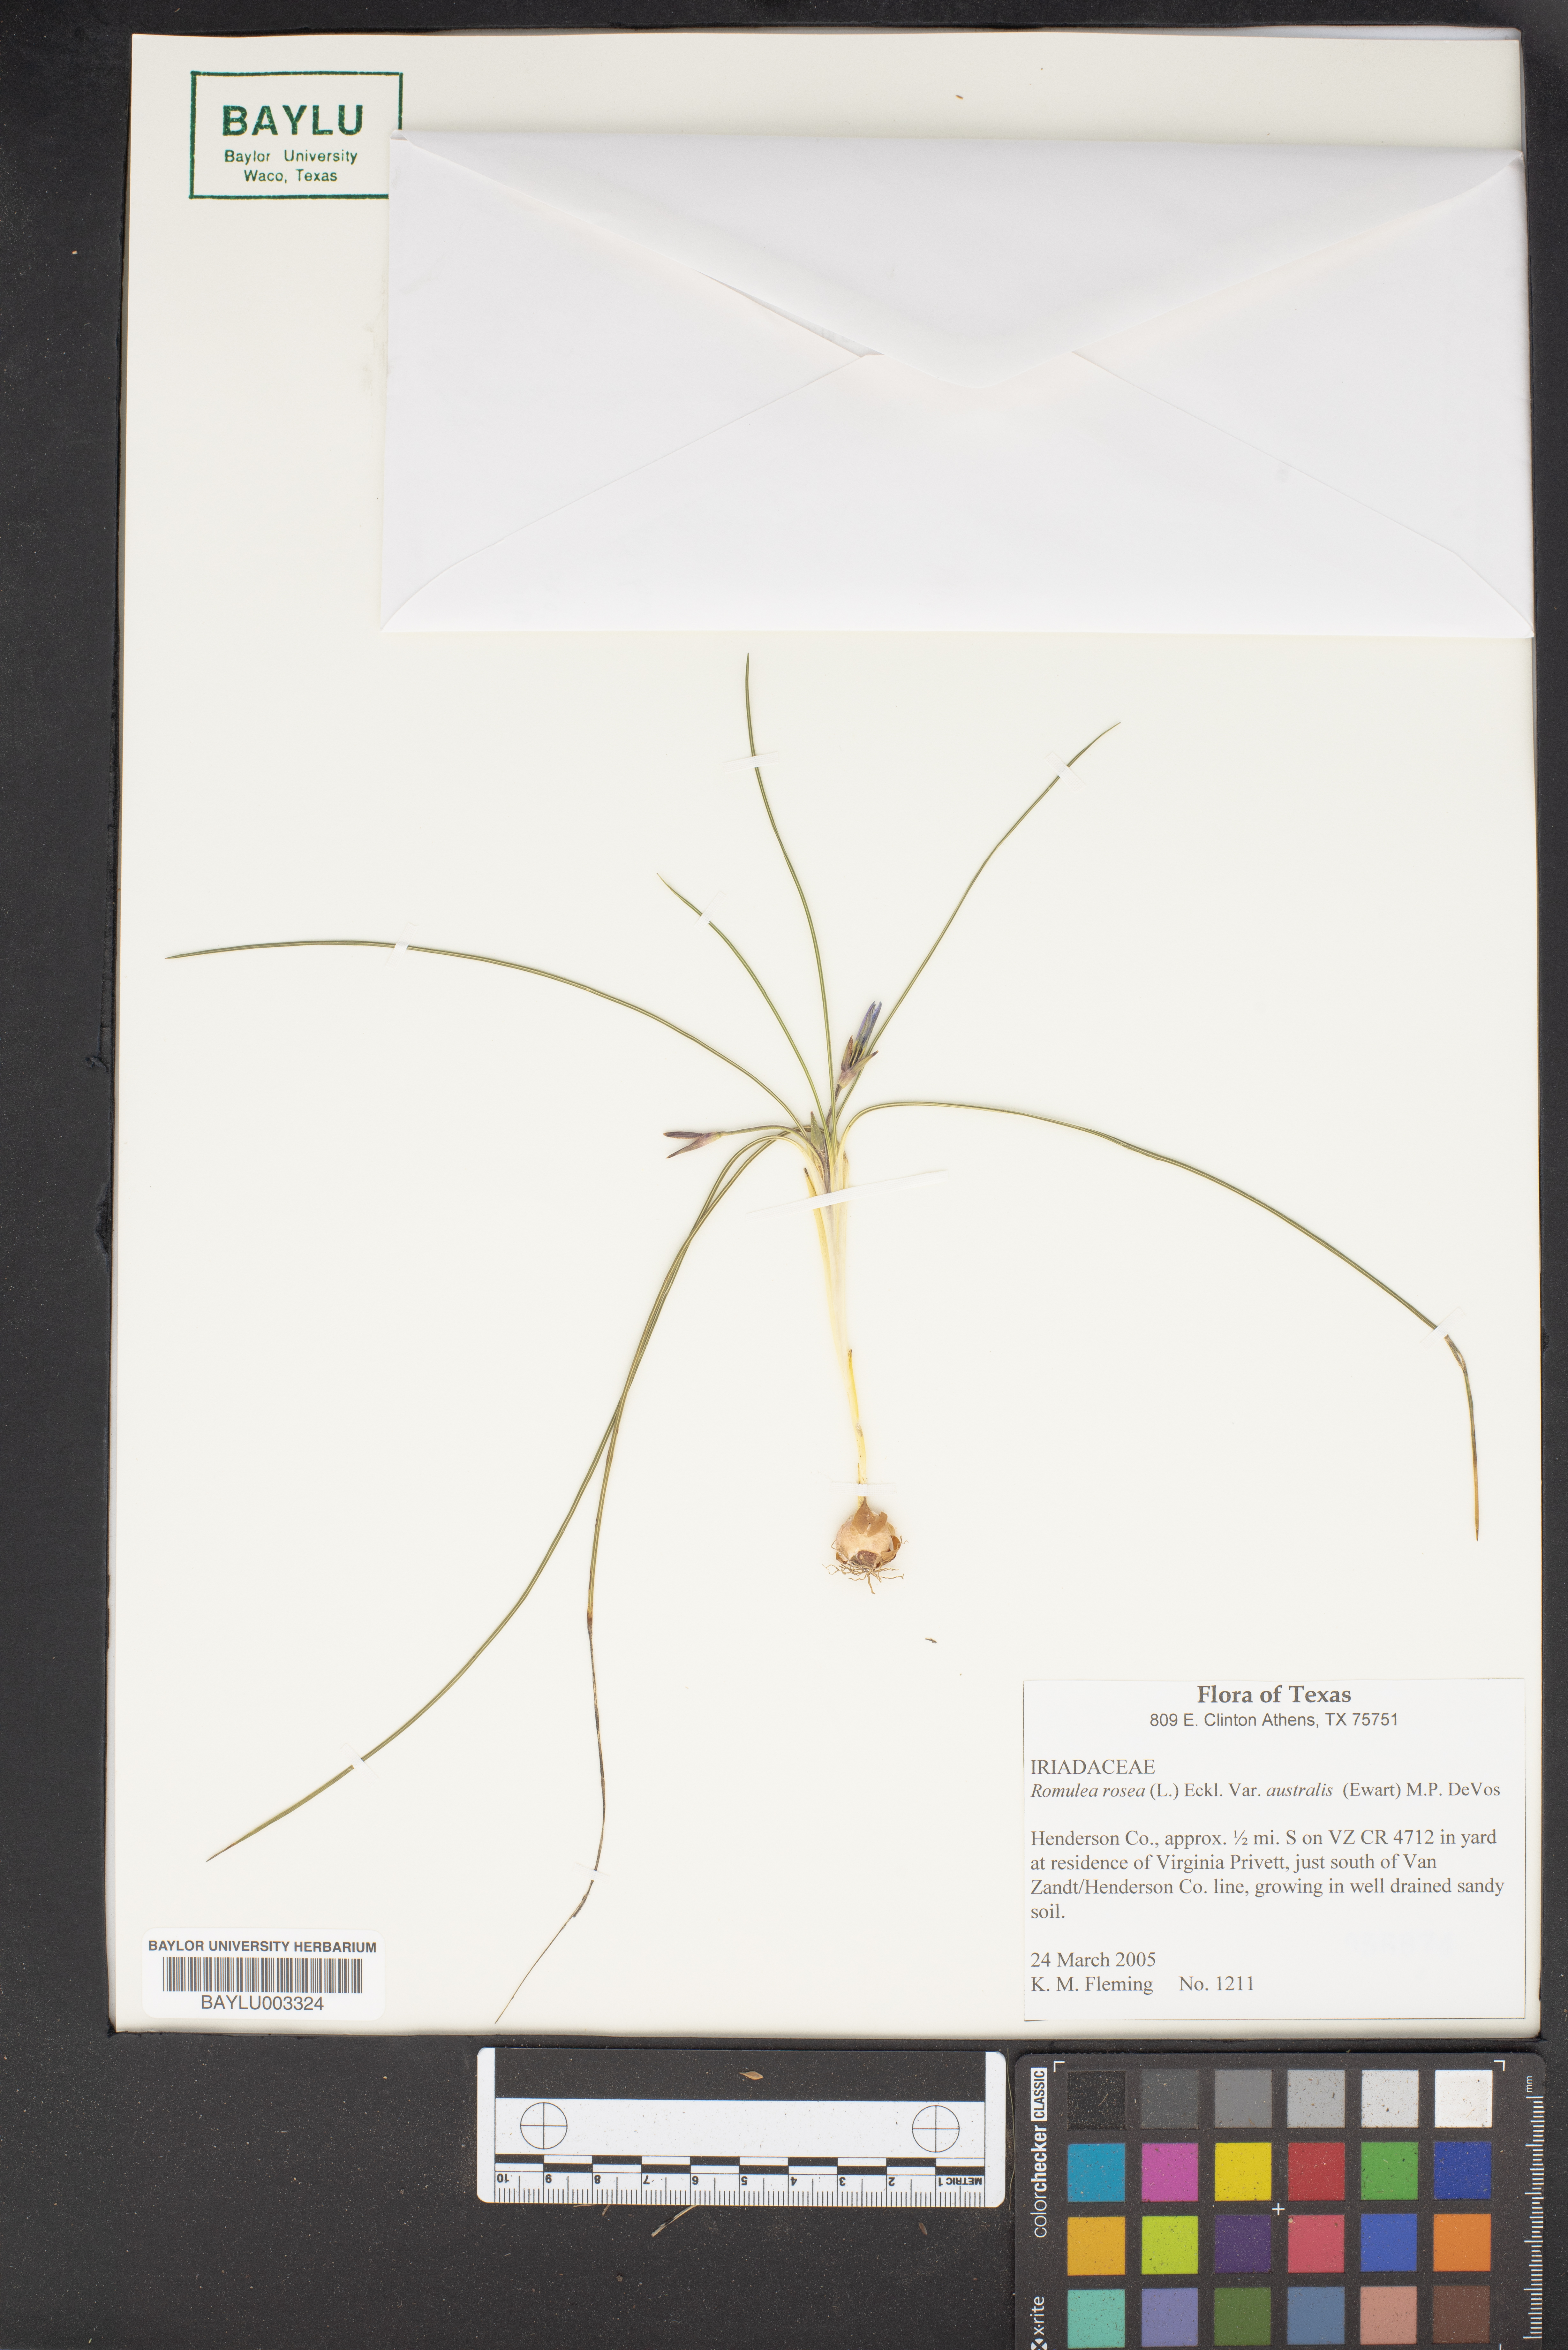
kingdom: Plantae
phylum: Tracheophyta
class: Liliopsida
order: Asparagales
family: Iridaceae
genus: Romulea
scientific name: Romulea rosea
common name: Oniongrass
